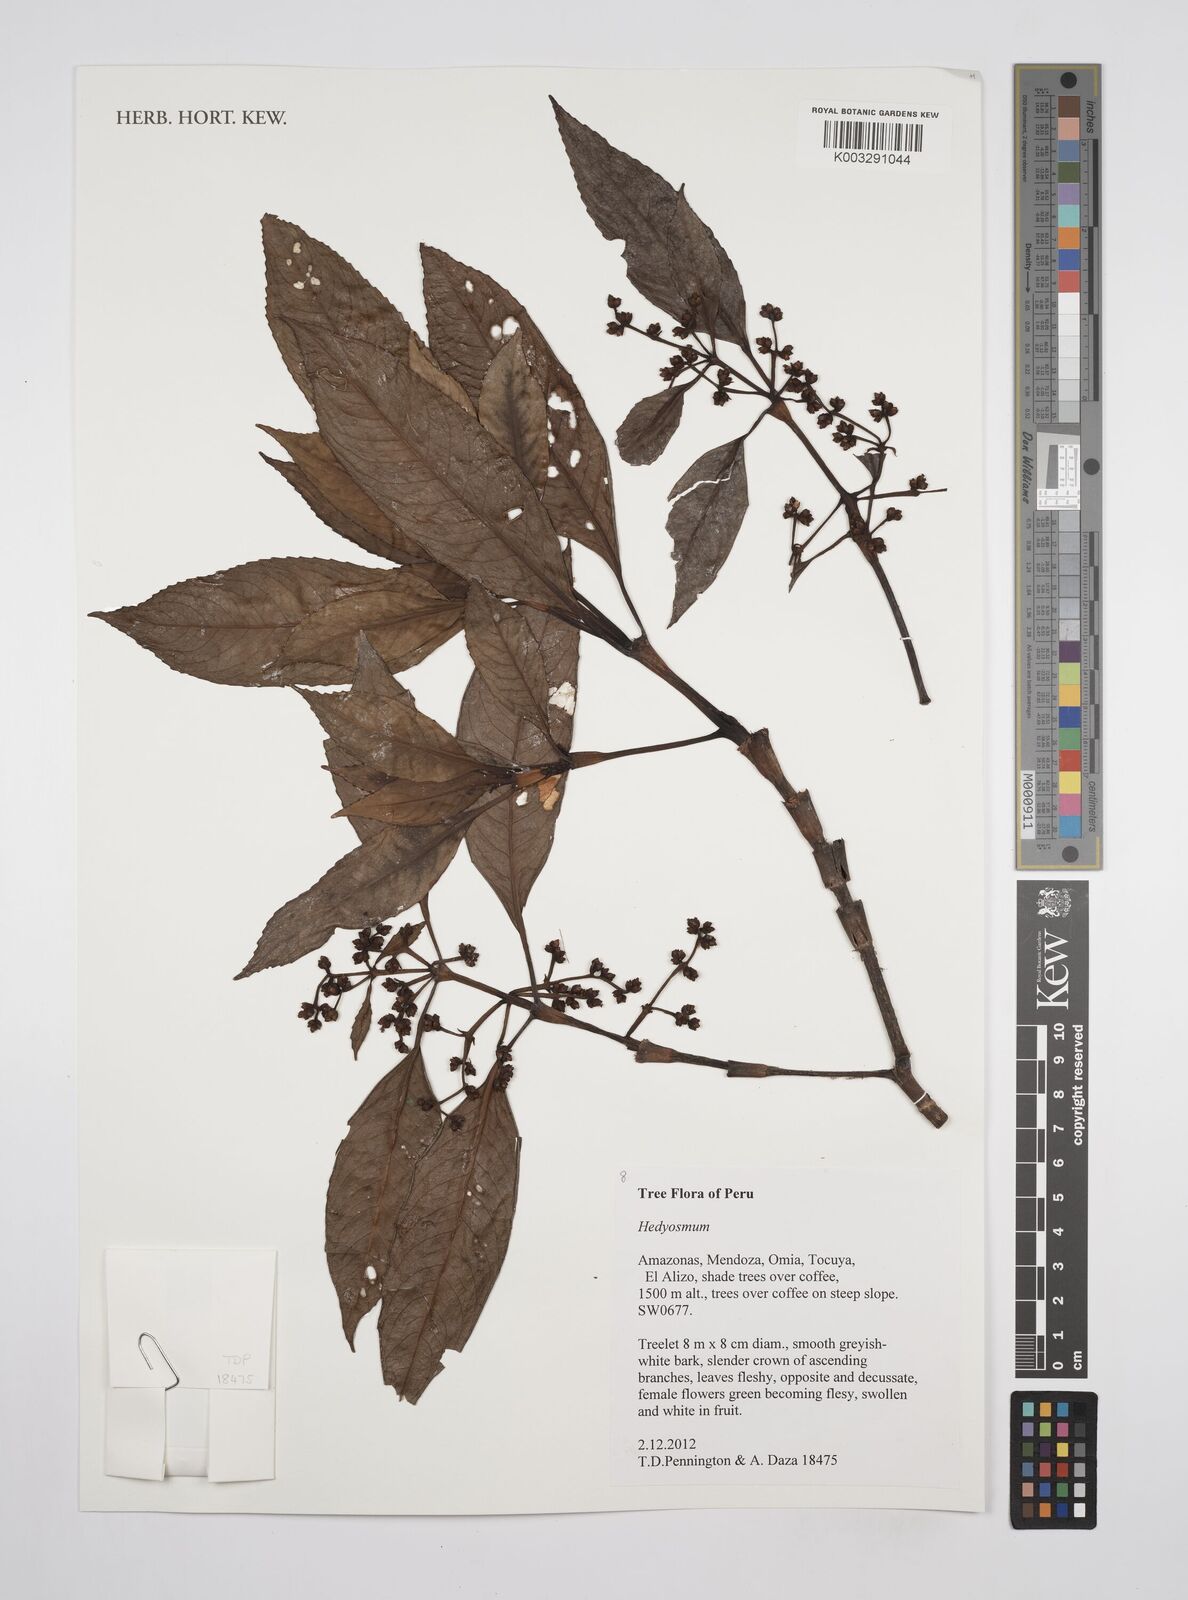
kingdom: Plantae
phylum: Tracheophyta
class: Magnoliopsida
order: Chloranthales
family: Chloranthaceae
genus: Hedyosmum
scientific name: Hedyosmum
